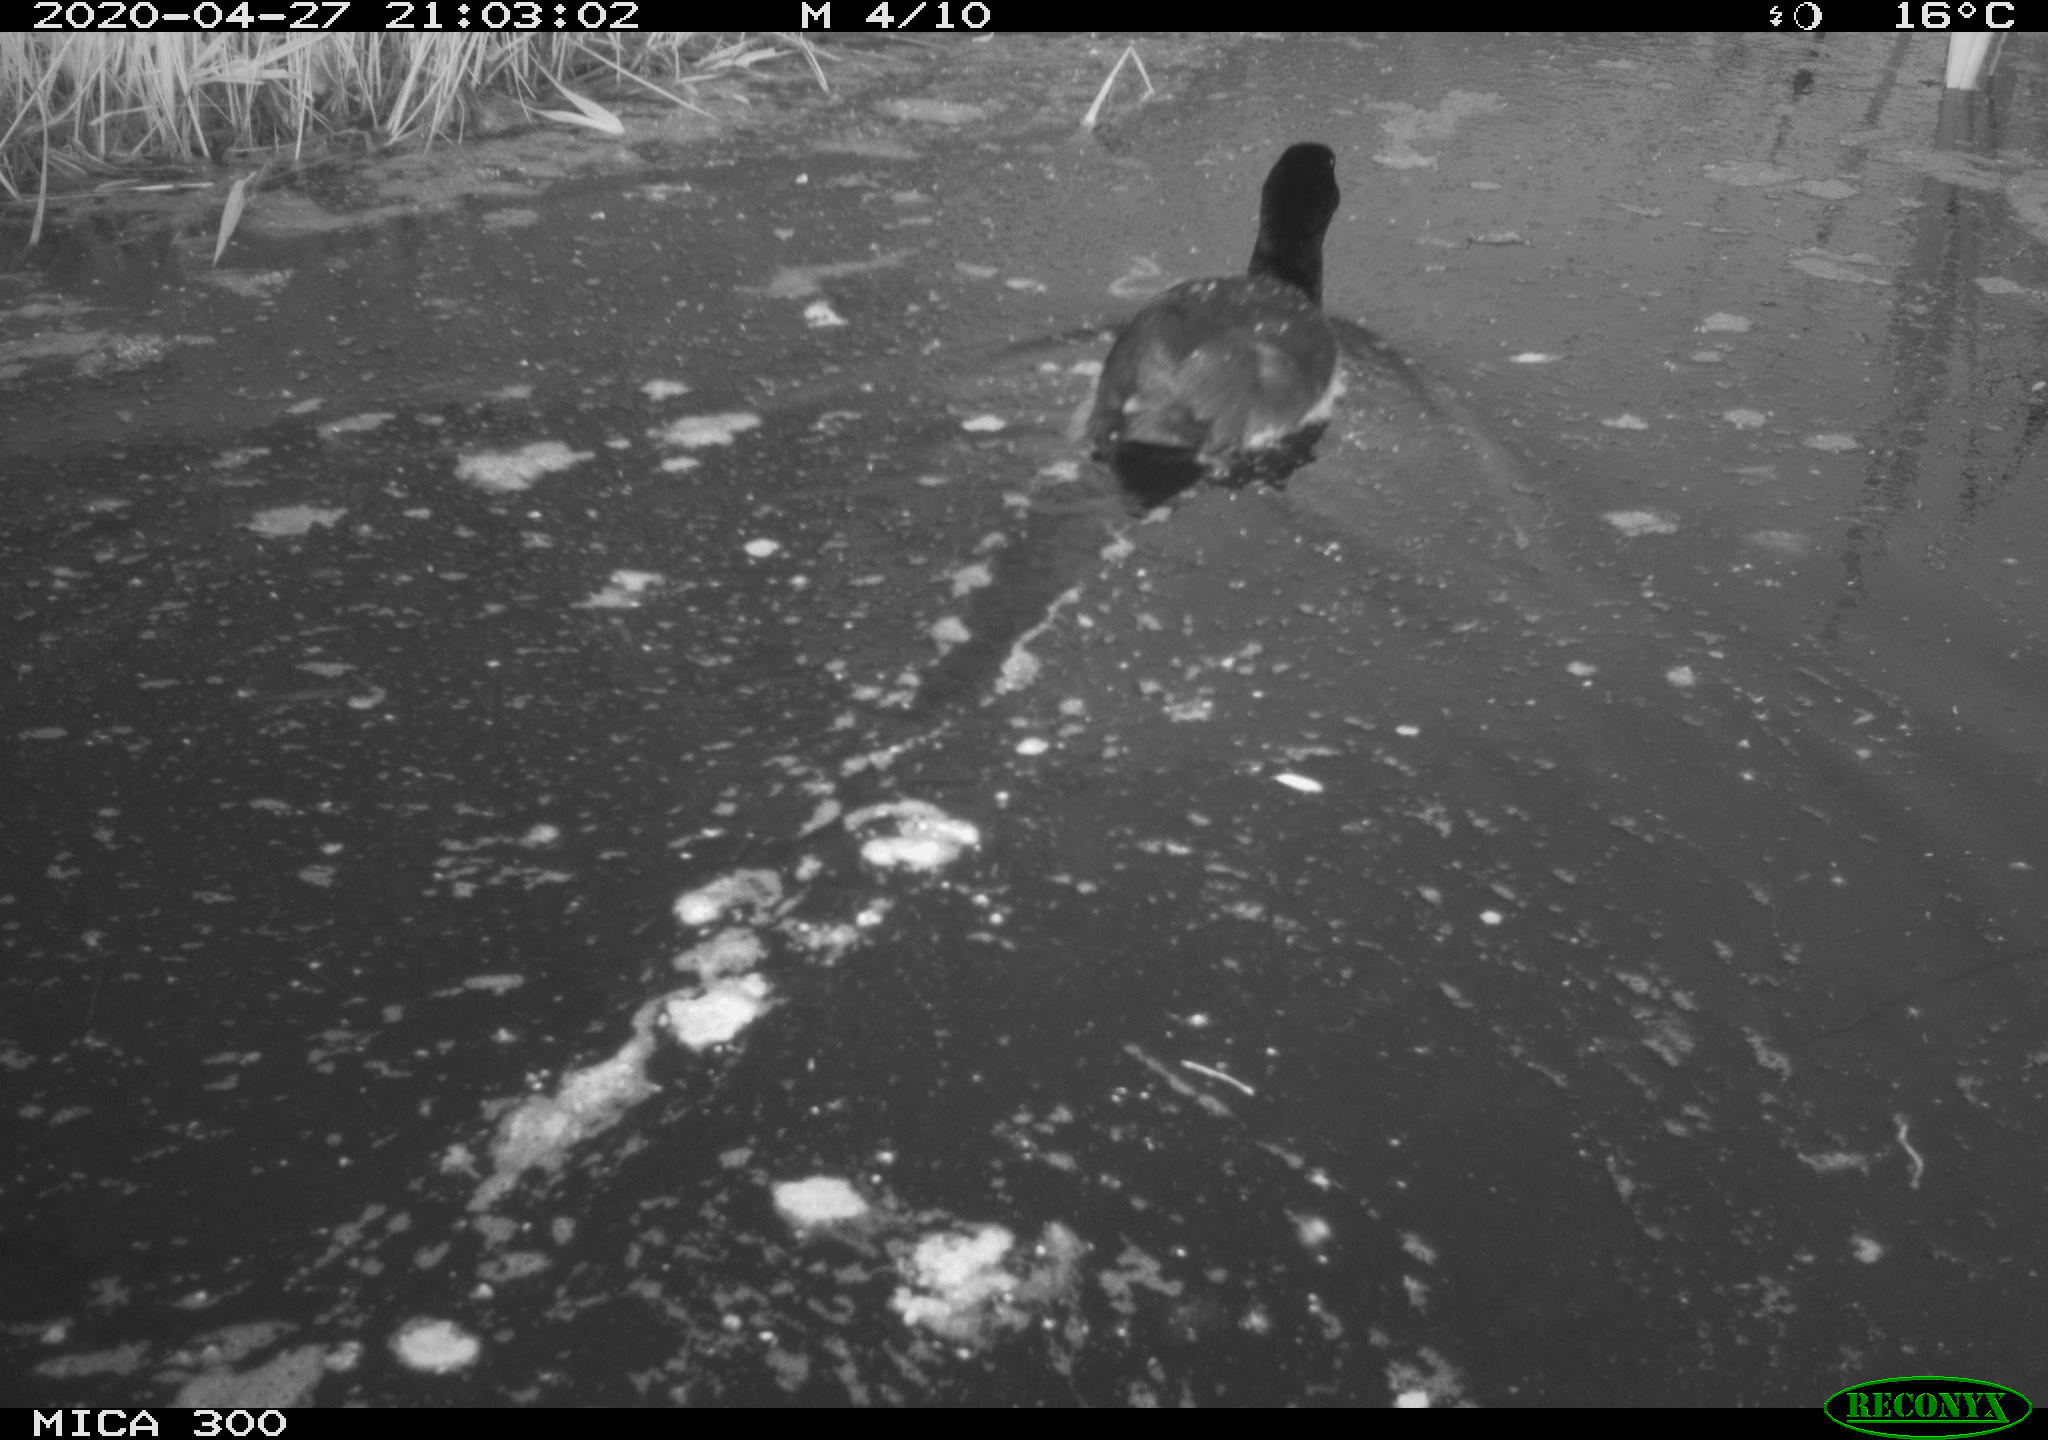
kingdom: Animalia
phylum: Chordata
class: Aves
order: Gruiformes
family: Rallidae
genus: Fulica
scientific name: Fulica atra
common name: Eurasian coot
